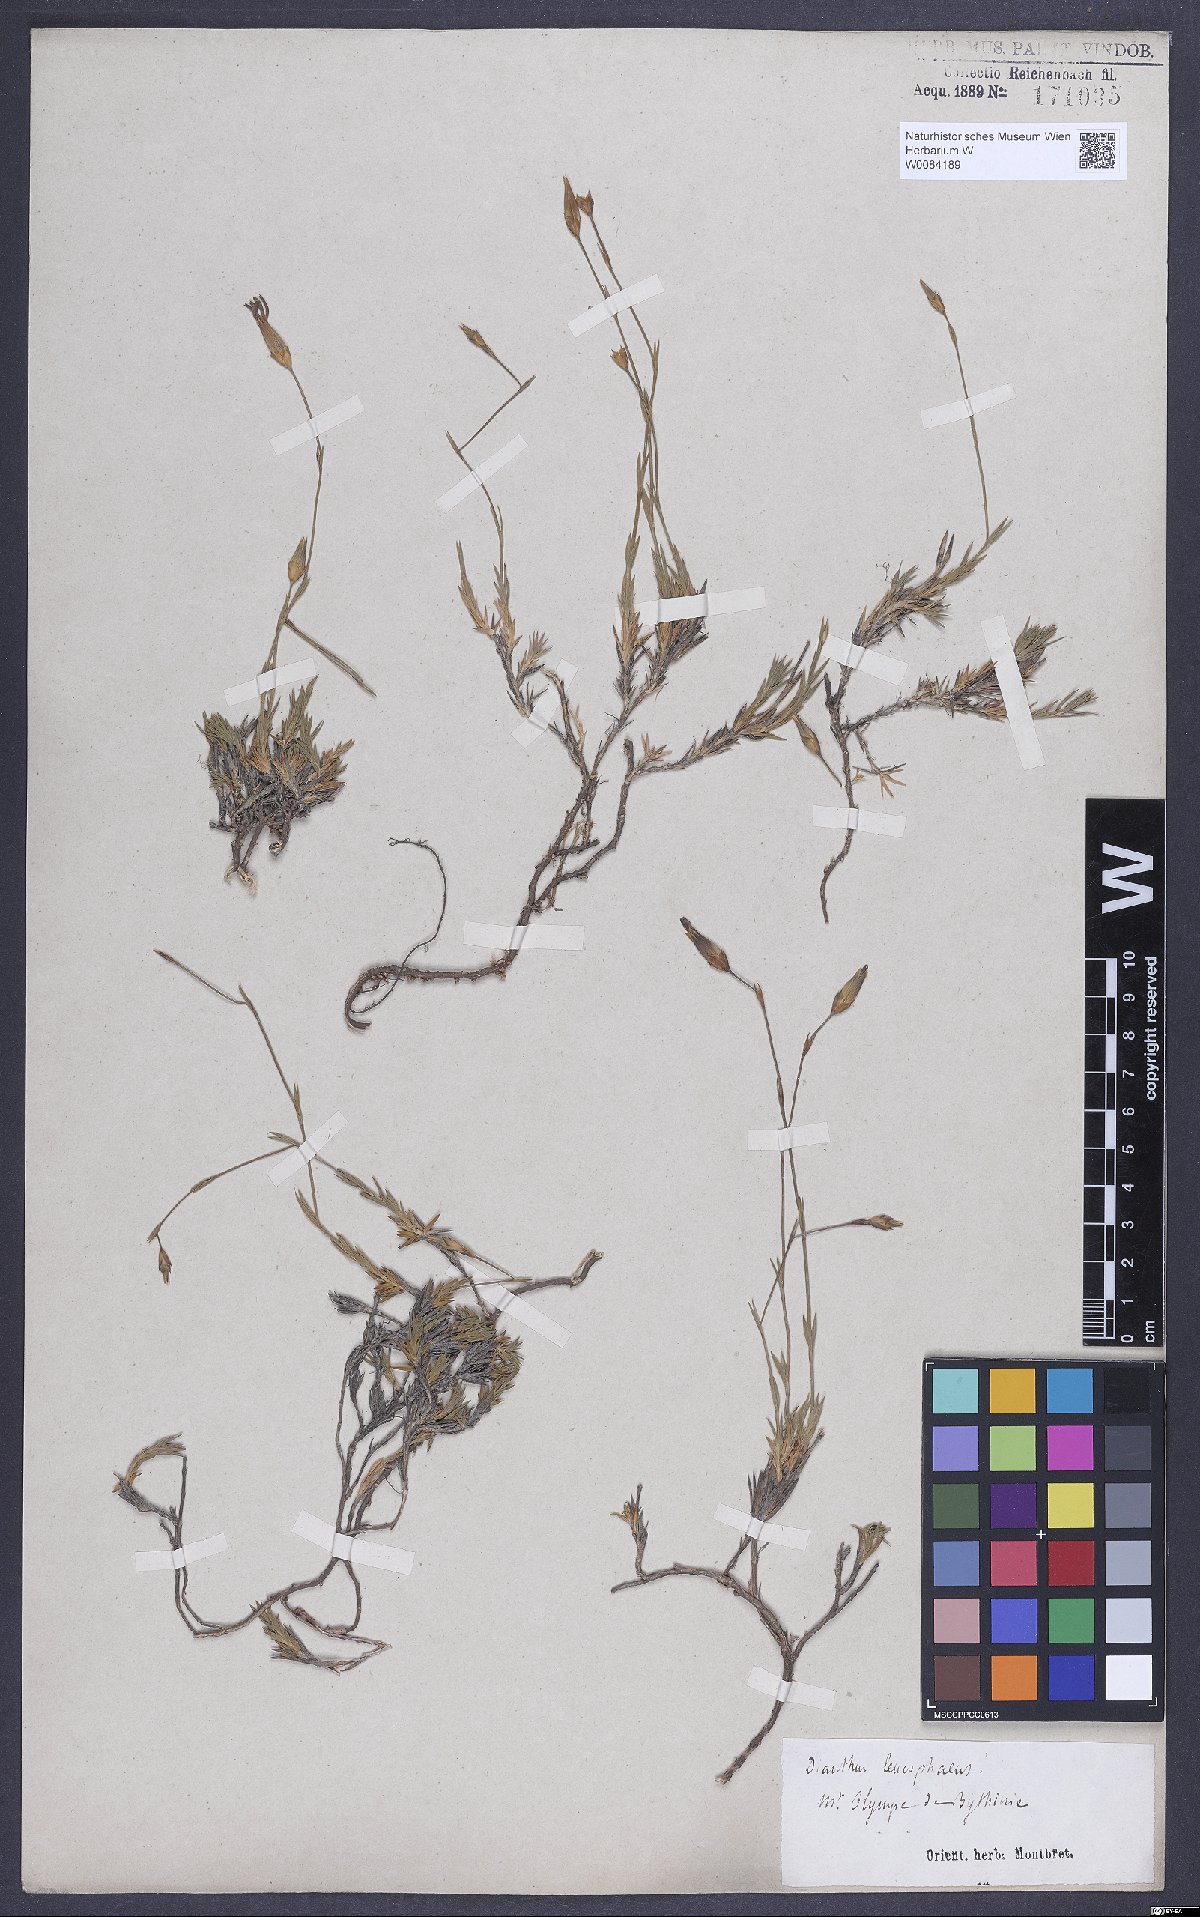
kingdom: Plantae
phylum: Tracheophyta
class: Magnoliopsida
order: Caryophyllales
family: Caryophyllaceae
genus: Dianthus
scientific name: Dianthus leucophaeus
